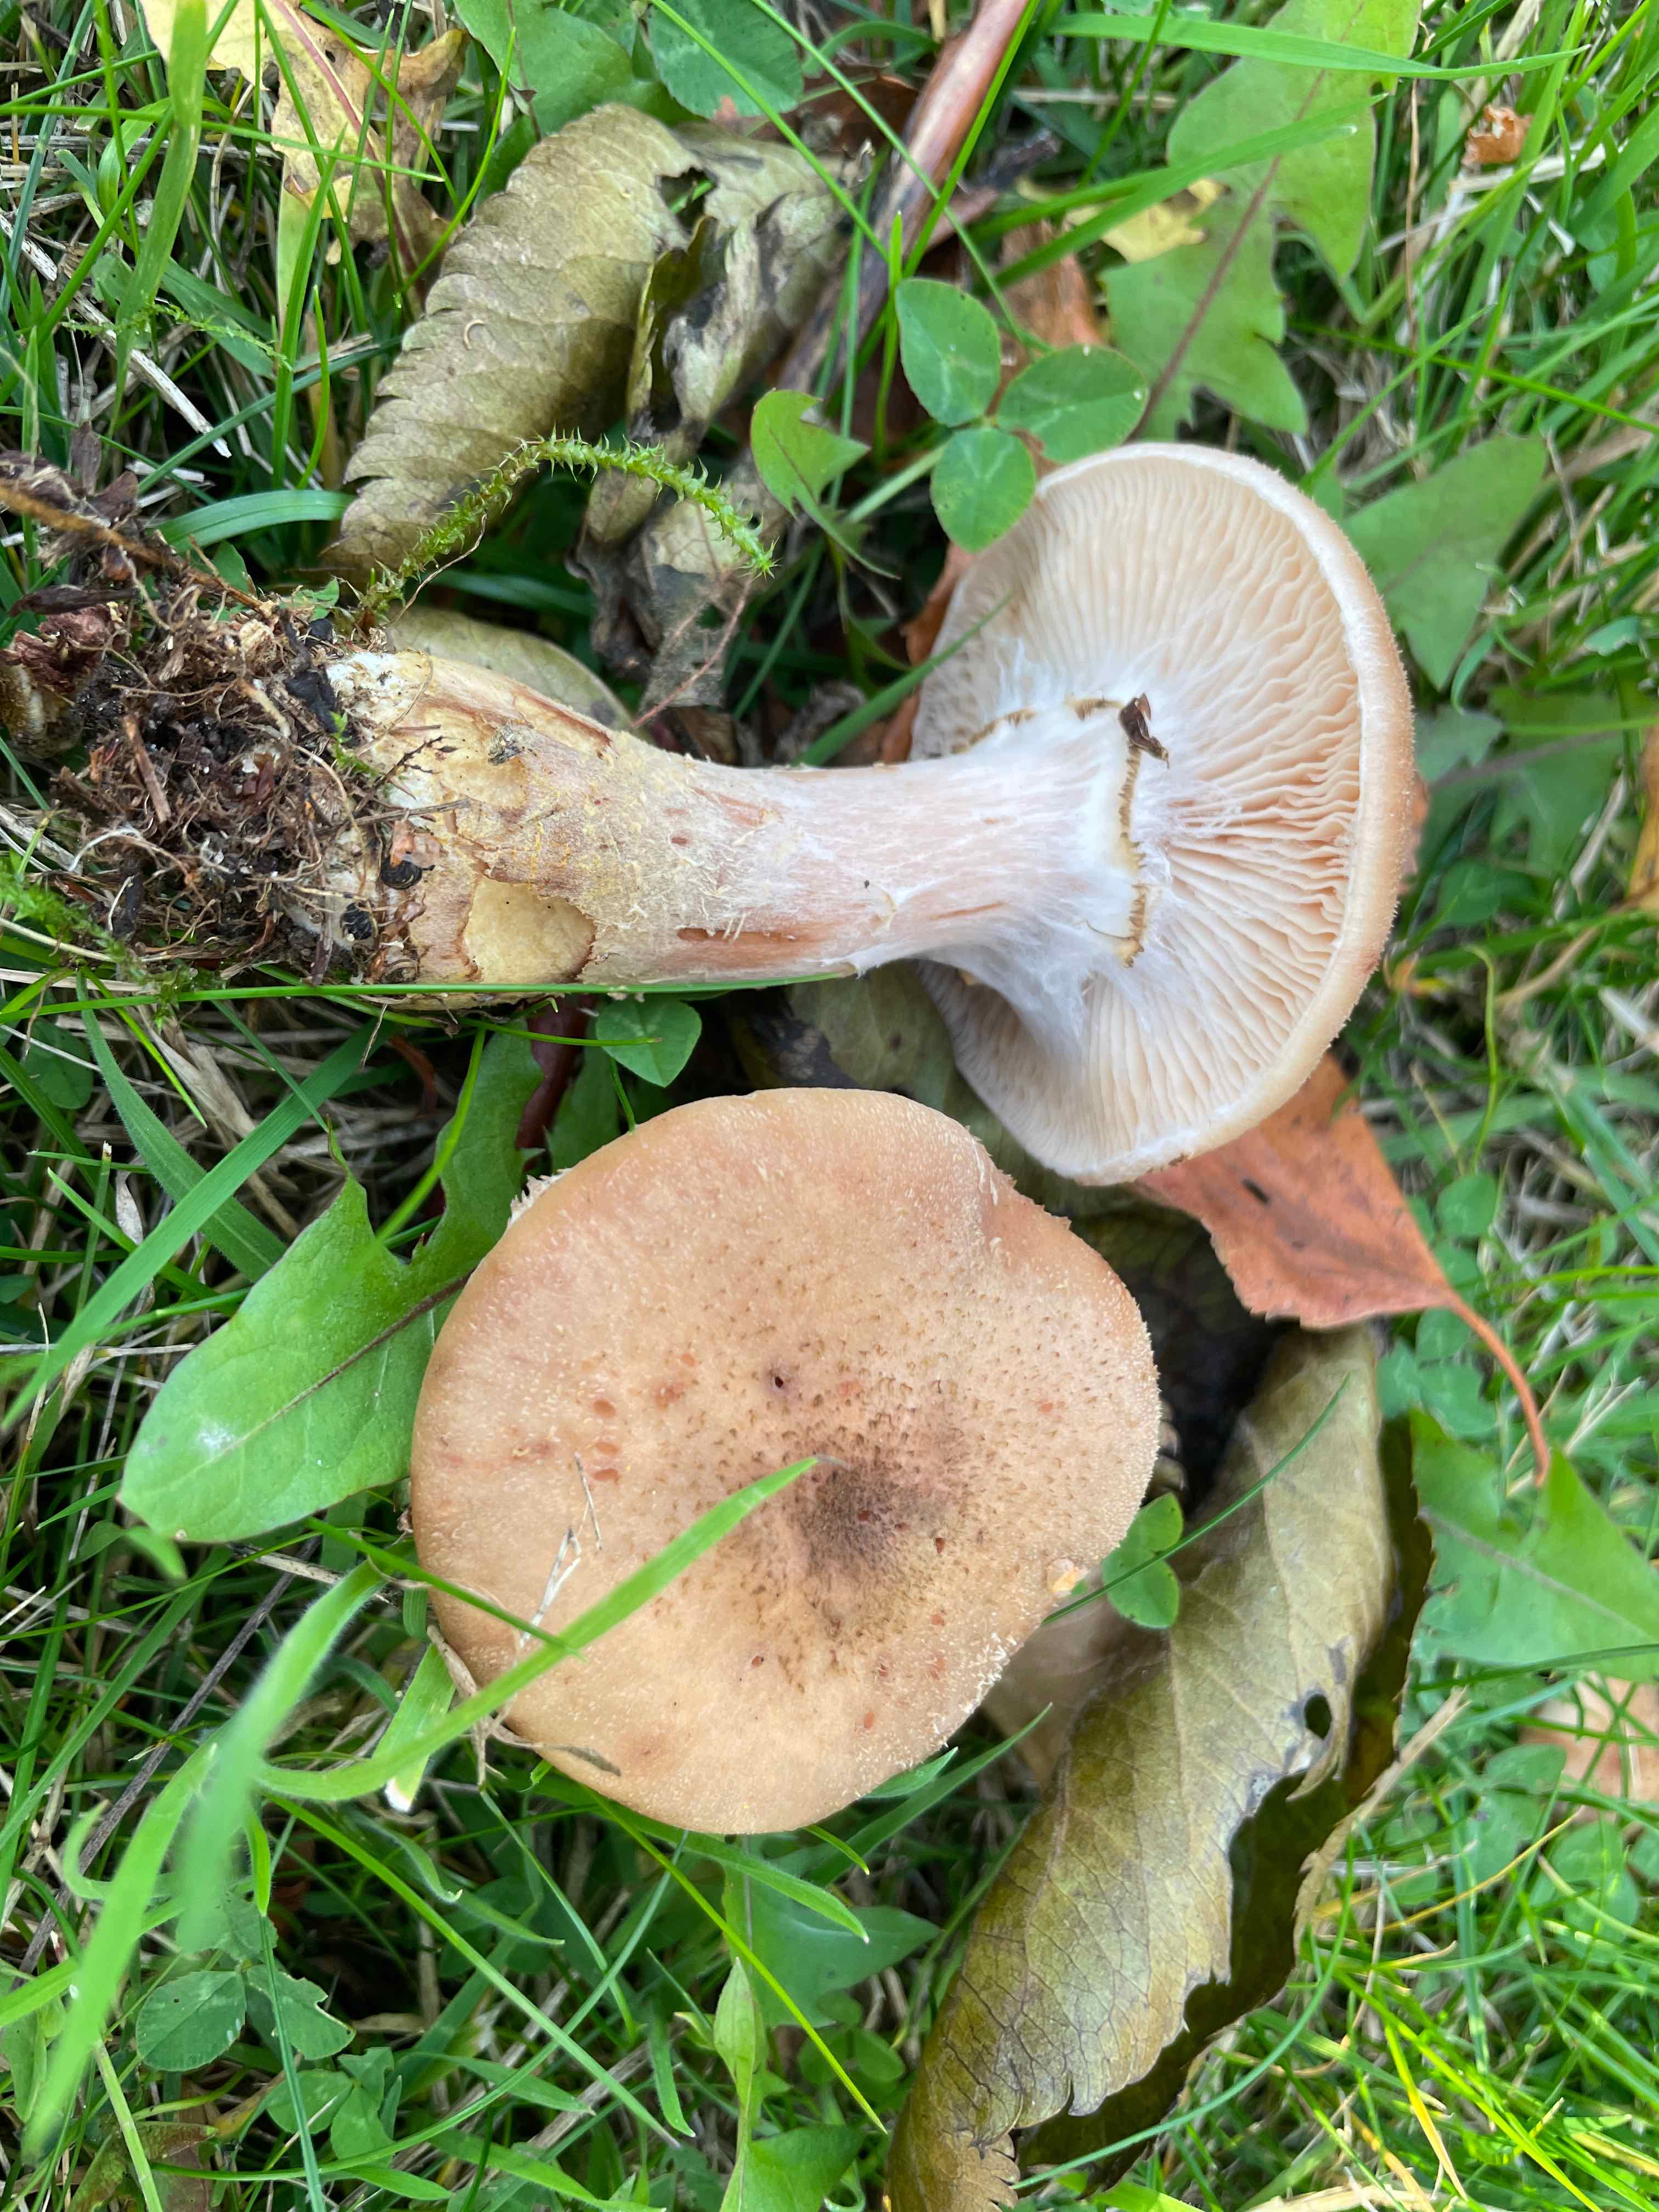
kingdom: Fungi
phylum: Basidiomycota
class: Agaricomycetes
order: Agaricales
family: Physalacriaceae
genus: Armillaria
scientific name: Armillaria lutea
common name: køllestokket honningsvamp
